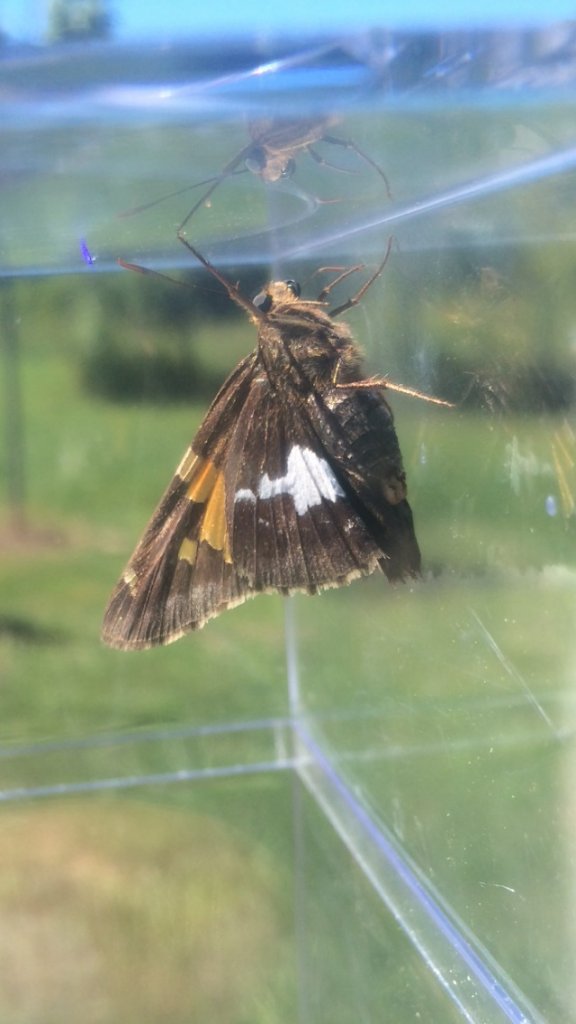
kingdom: Animalia
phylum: Arthropoda
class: Insecta
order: Lepidoptera
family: Hesperiidae
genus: Epargyreus
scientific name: Epargyreus clarus
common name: Silver-spotted Skipper
